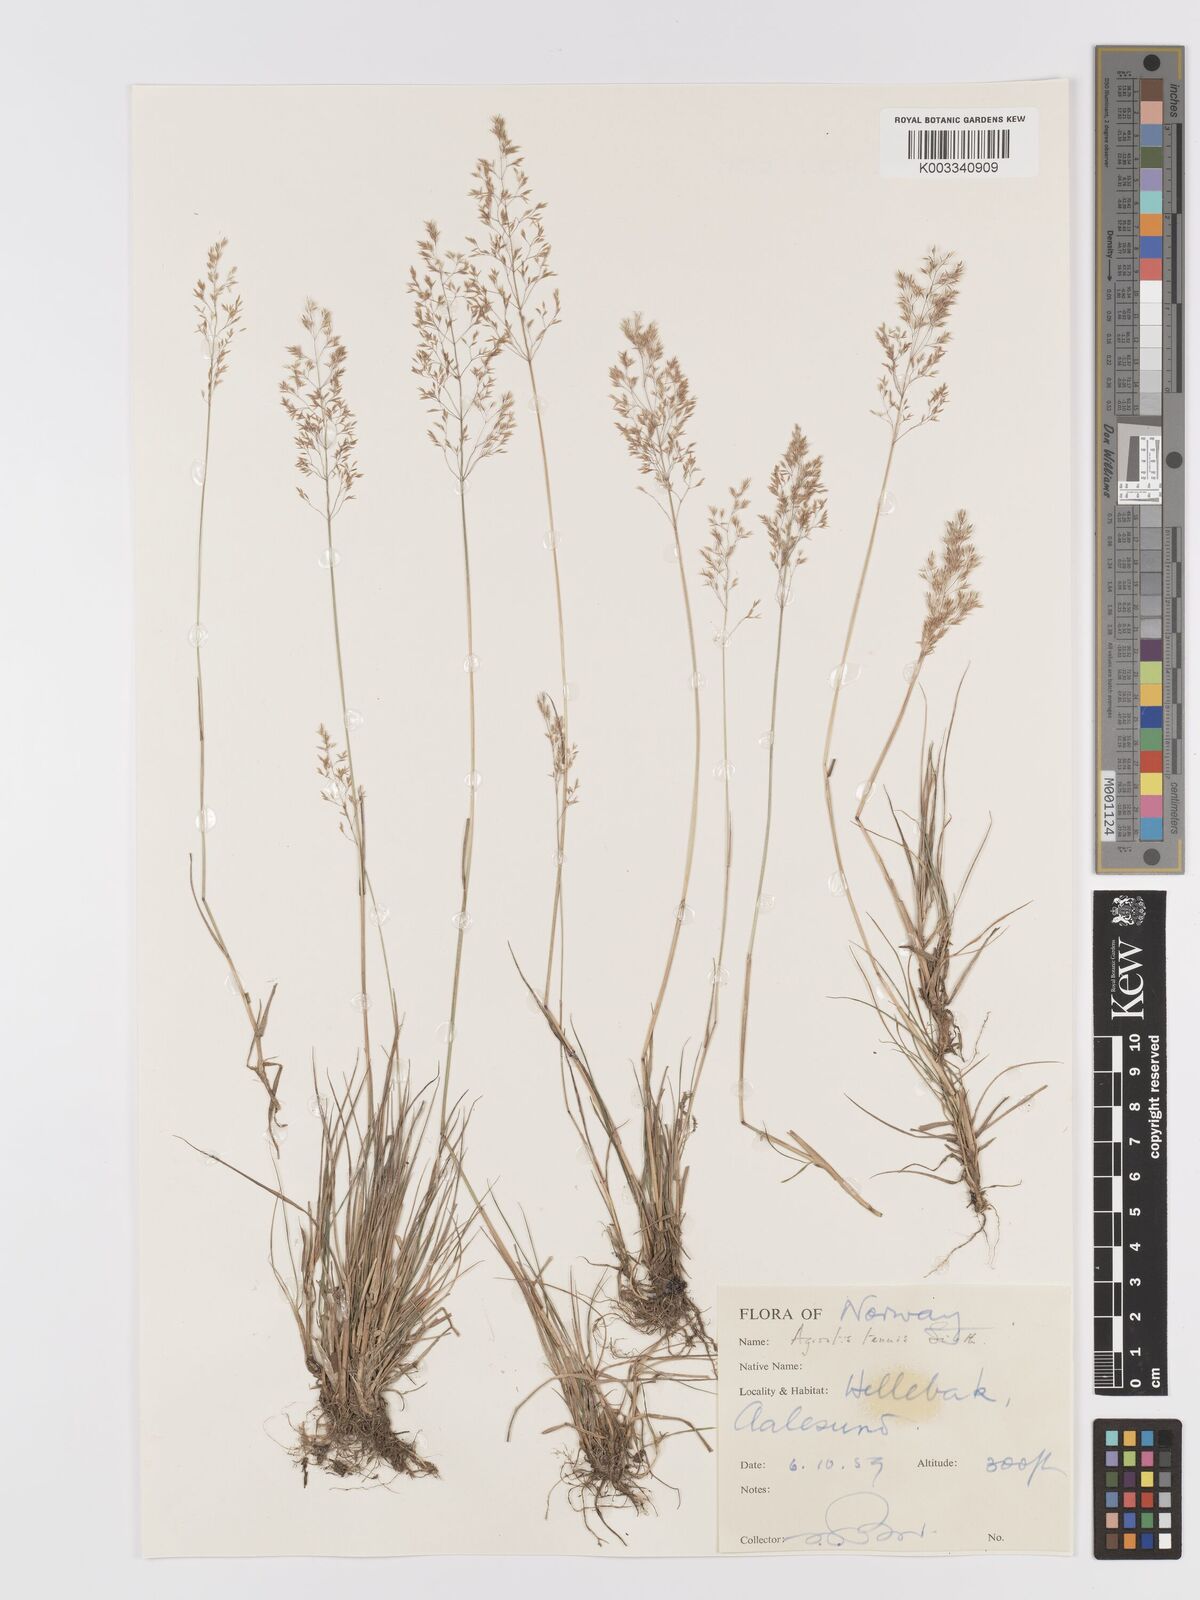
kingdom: Plantae
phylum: Tracheophyta
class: Liliopsida
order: Poales
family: Poaceae
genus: Agrostis
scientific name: Agrostis capillaris
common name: Colonial bentgrass
